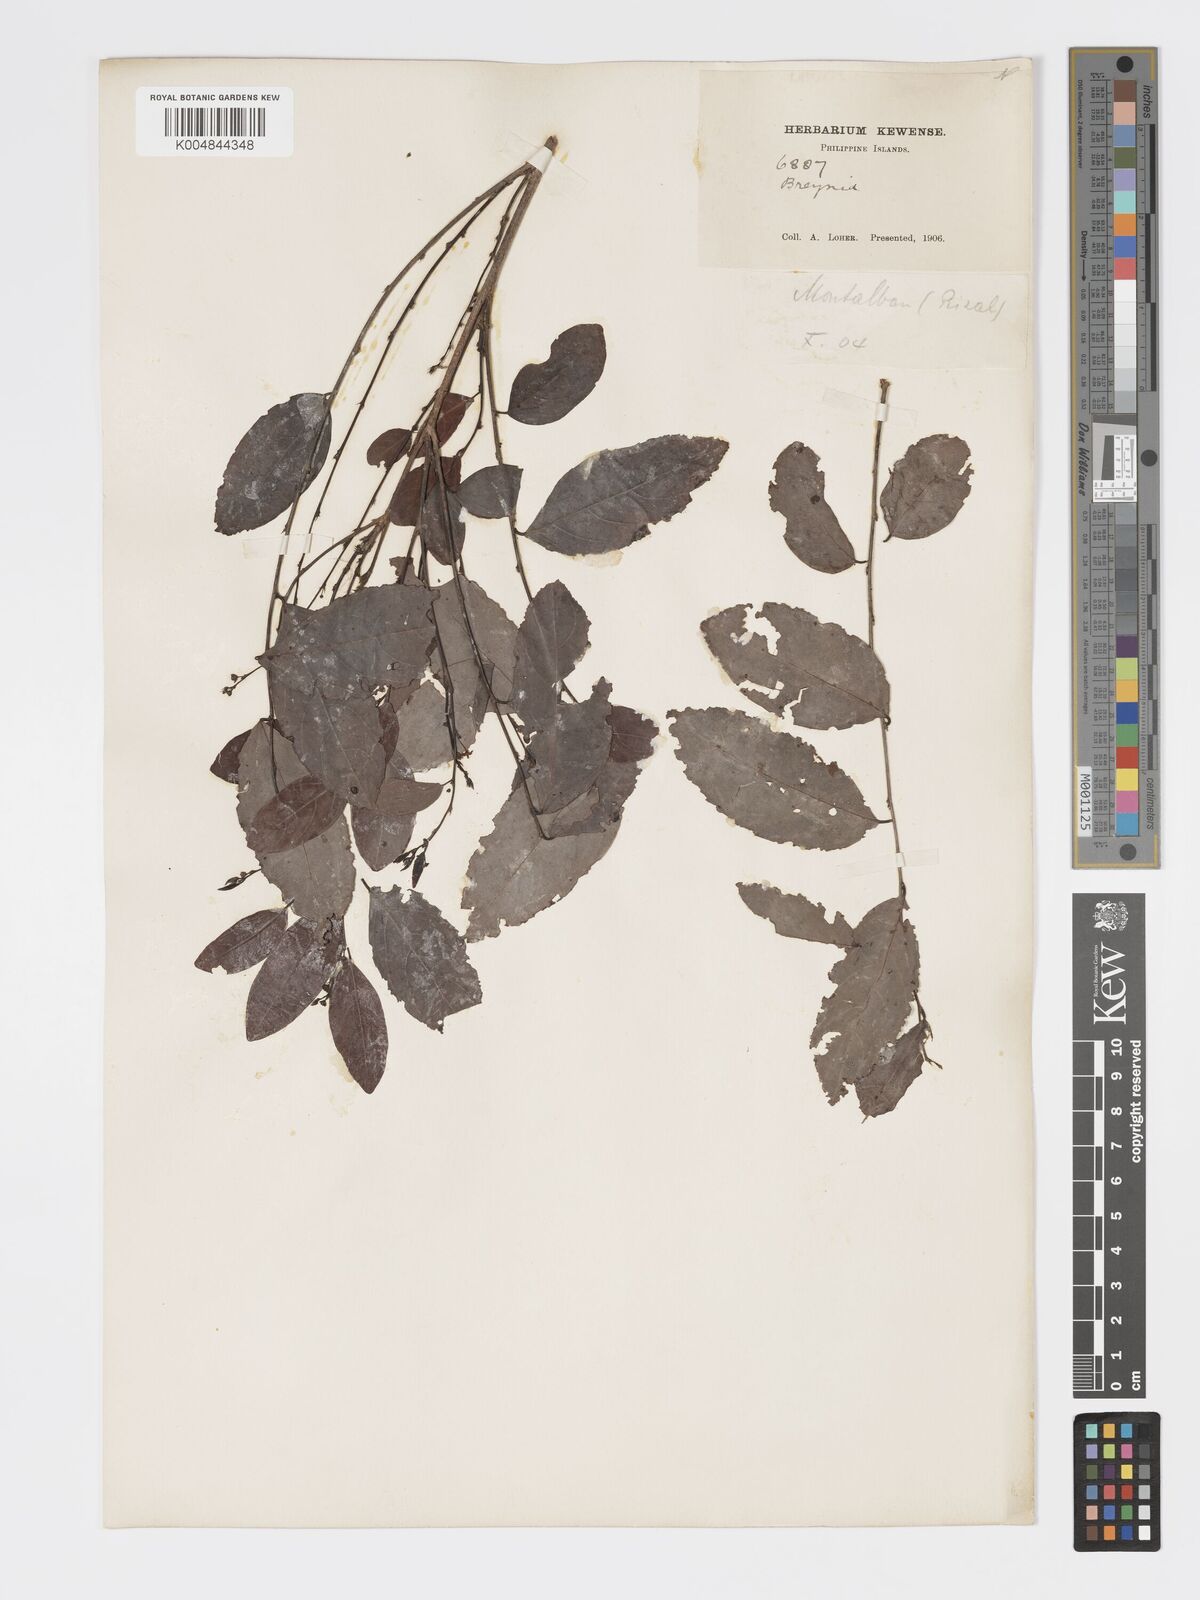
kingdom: Plantae
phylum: Tracheophyta
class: Magnoliopsida
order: Malpighiales
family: Phyllanthaceae
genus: Glochidion
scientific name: Glochidion triandrum
